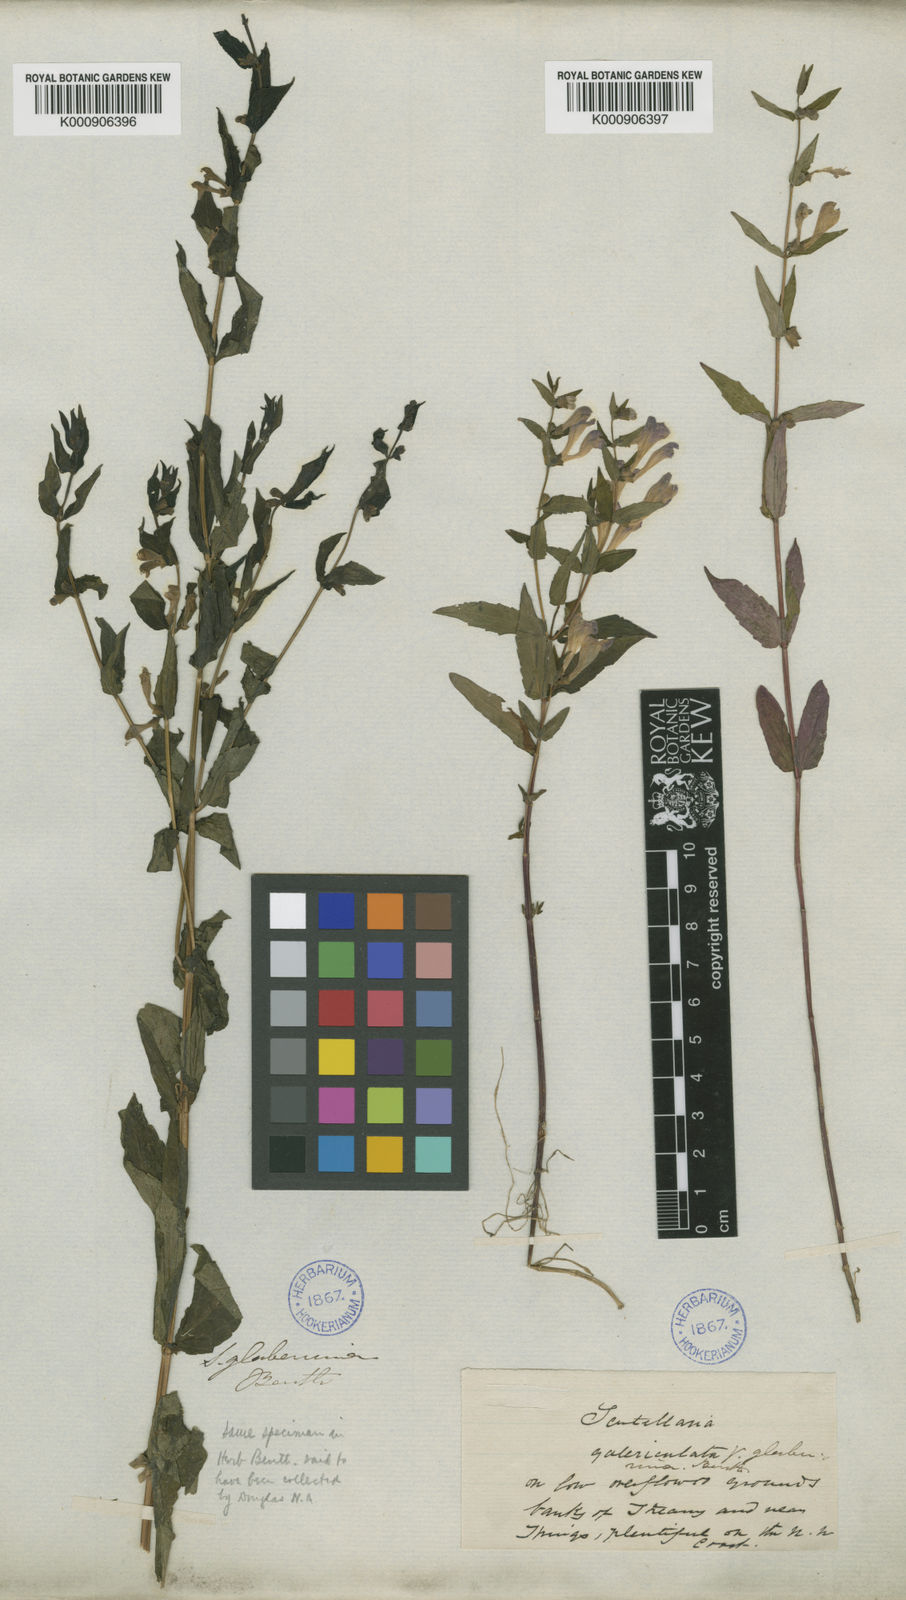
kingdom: Plantae
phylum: Tracheophyta
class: Magnoliopsida
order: Lamiales
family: Lamiaceae
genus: Scutellaria
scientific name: Scutellaria galericulata
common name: Skullcap
